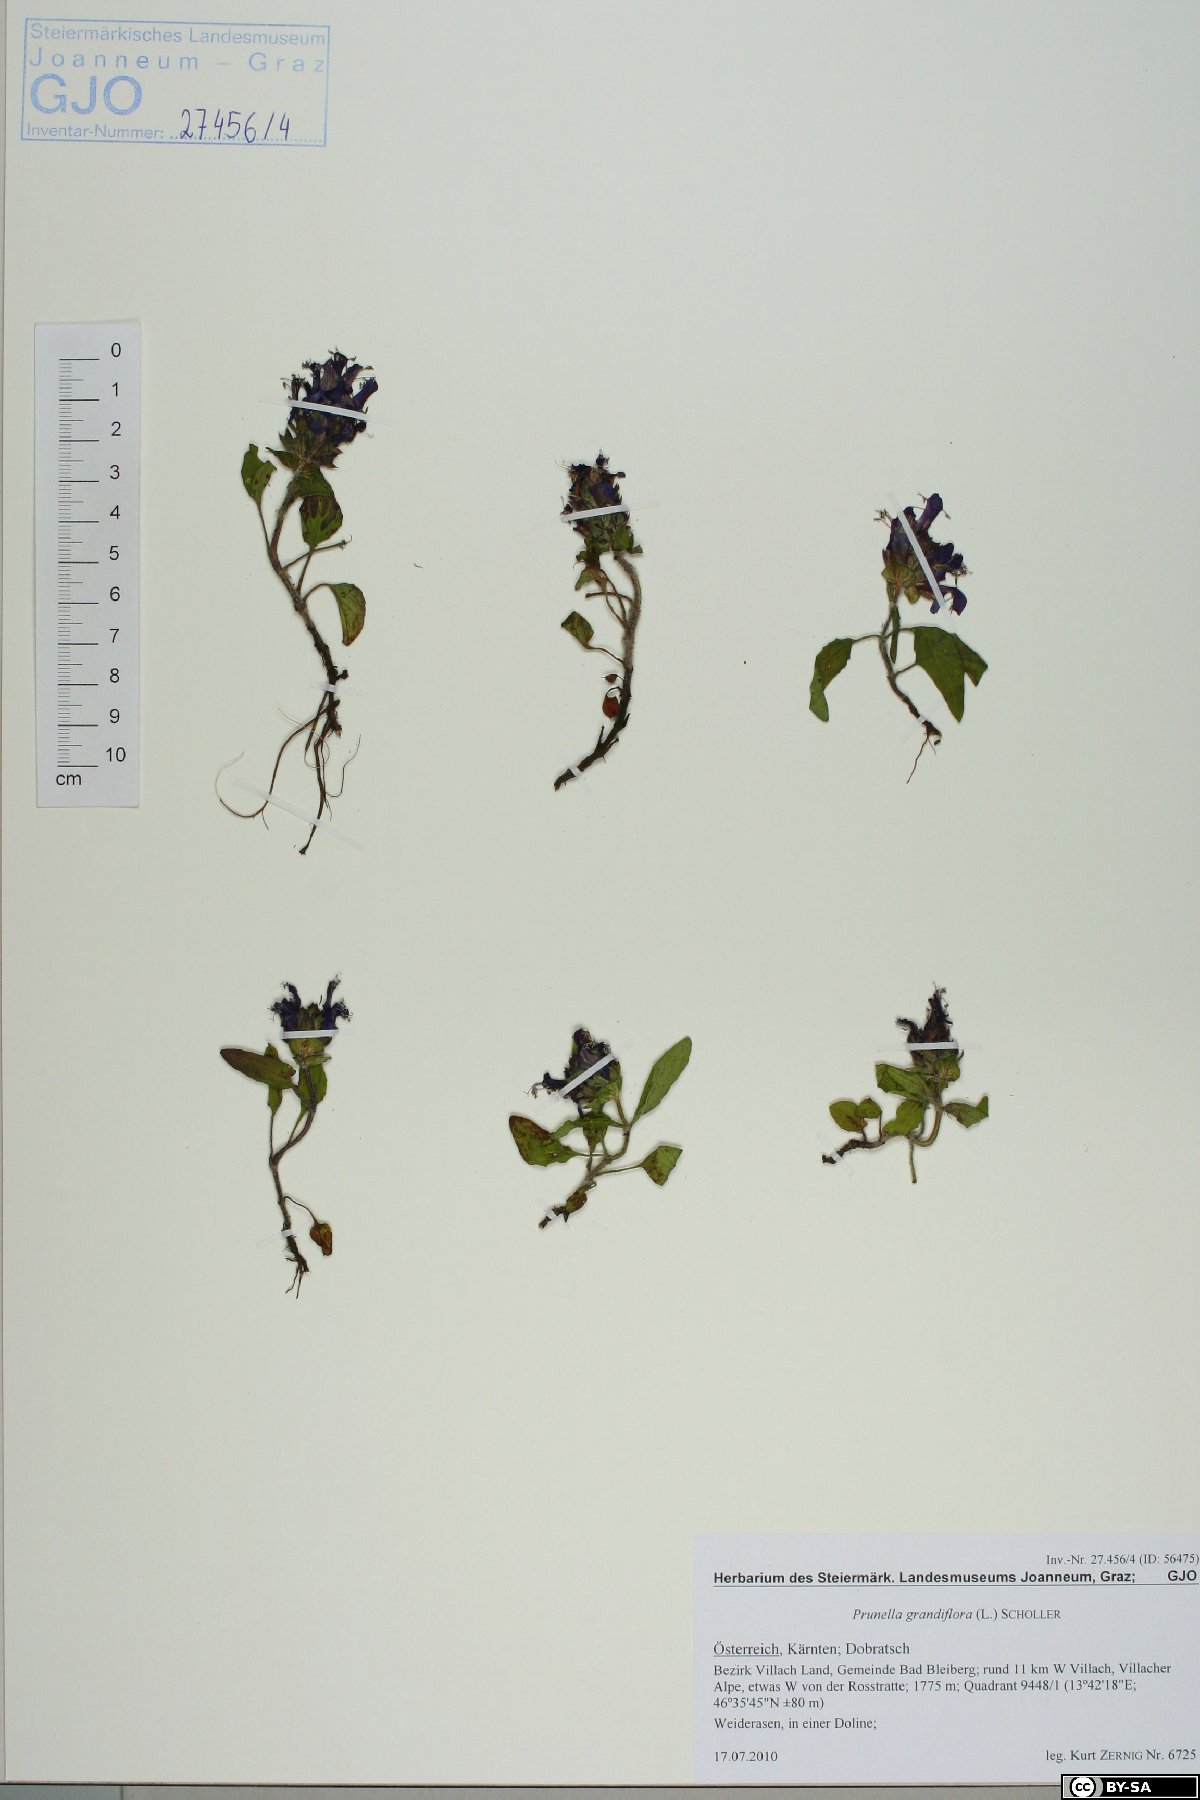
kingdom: Plantae
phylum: Tracheophyta
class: Magnoliopsida
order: Lamiales
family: Lamiaceae
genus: Prunella
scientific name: Prunella grandiflora
